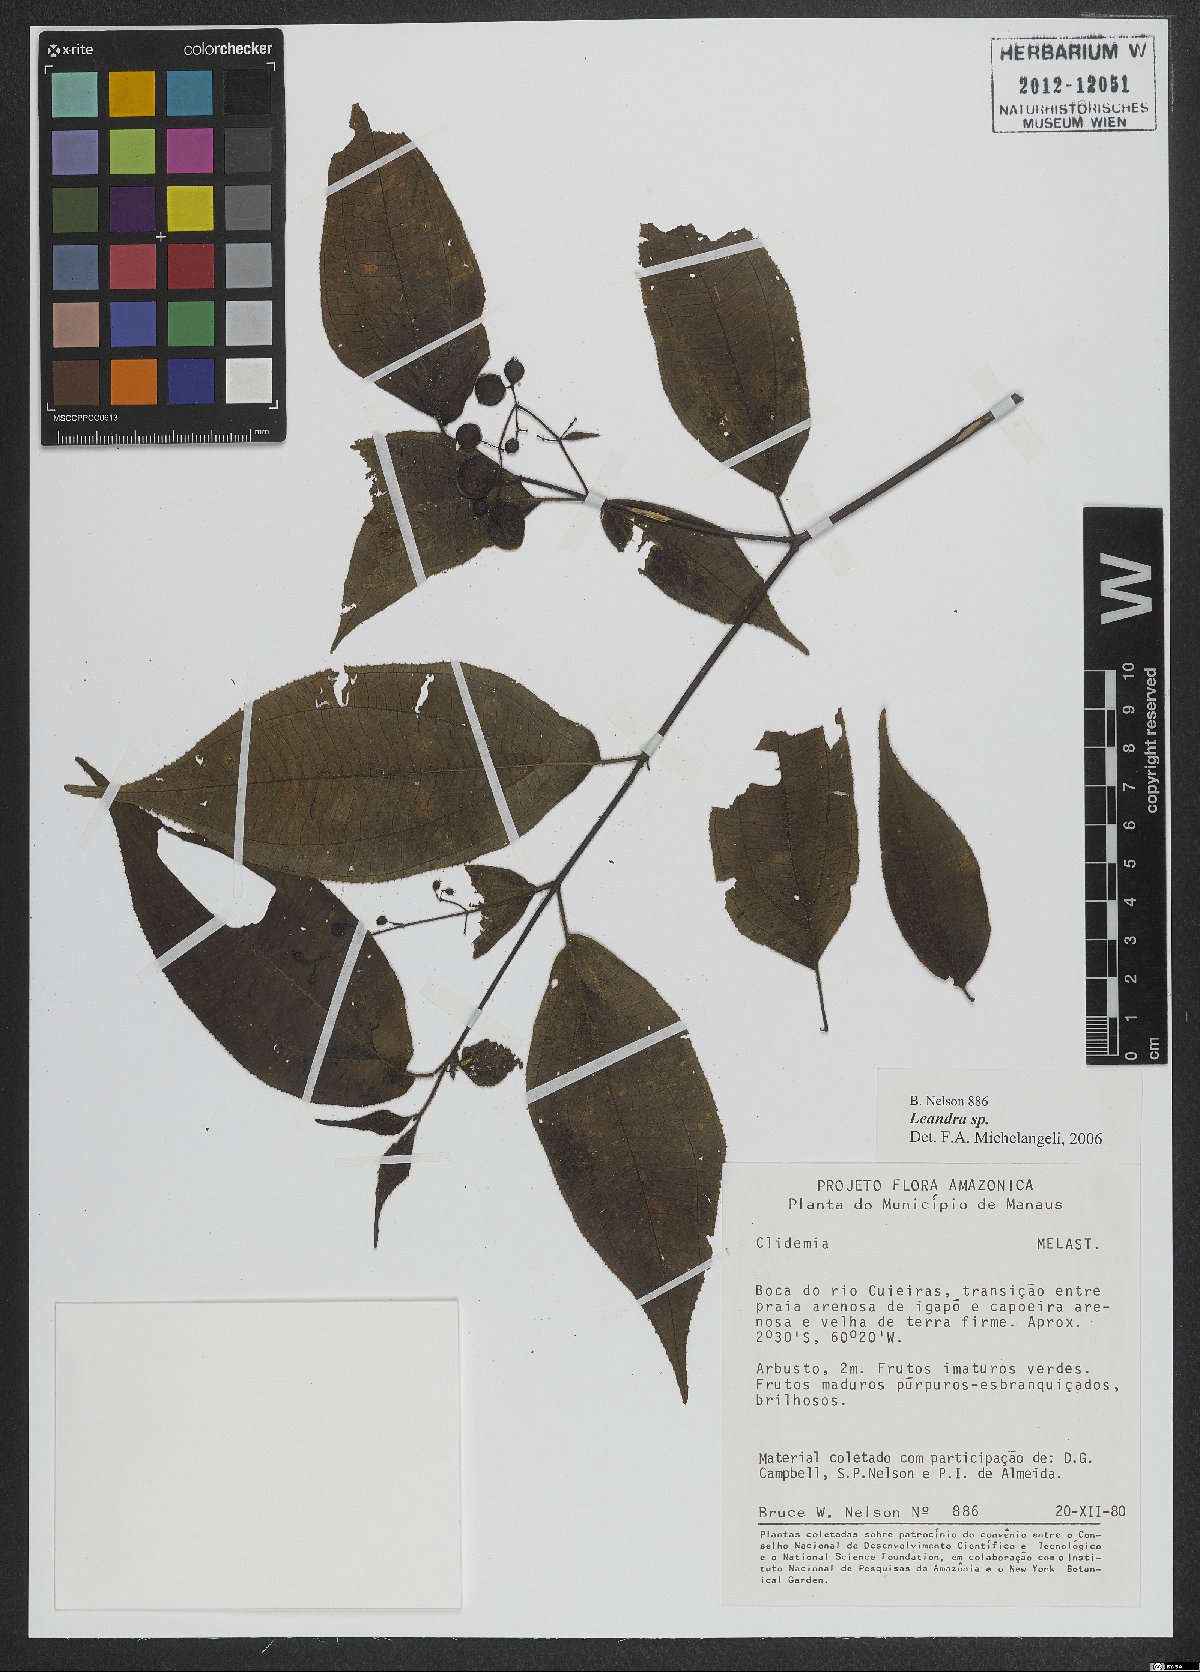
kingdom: Plantae
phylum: Tracheophyta
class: Magnoliopsida
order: Myrtales
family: Melastomataceae
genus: Miconia
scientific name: Miconia
